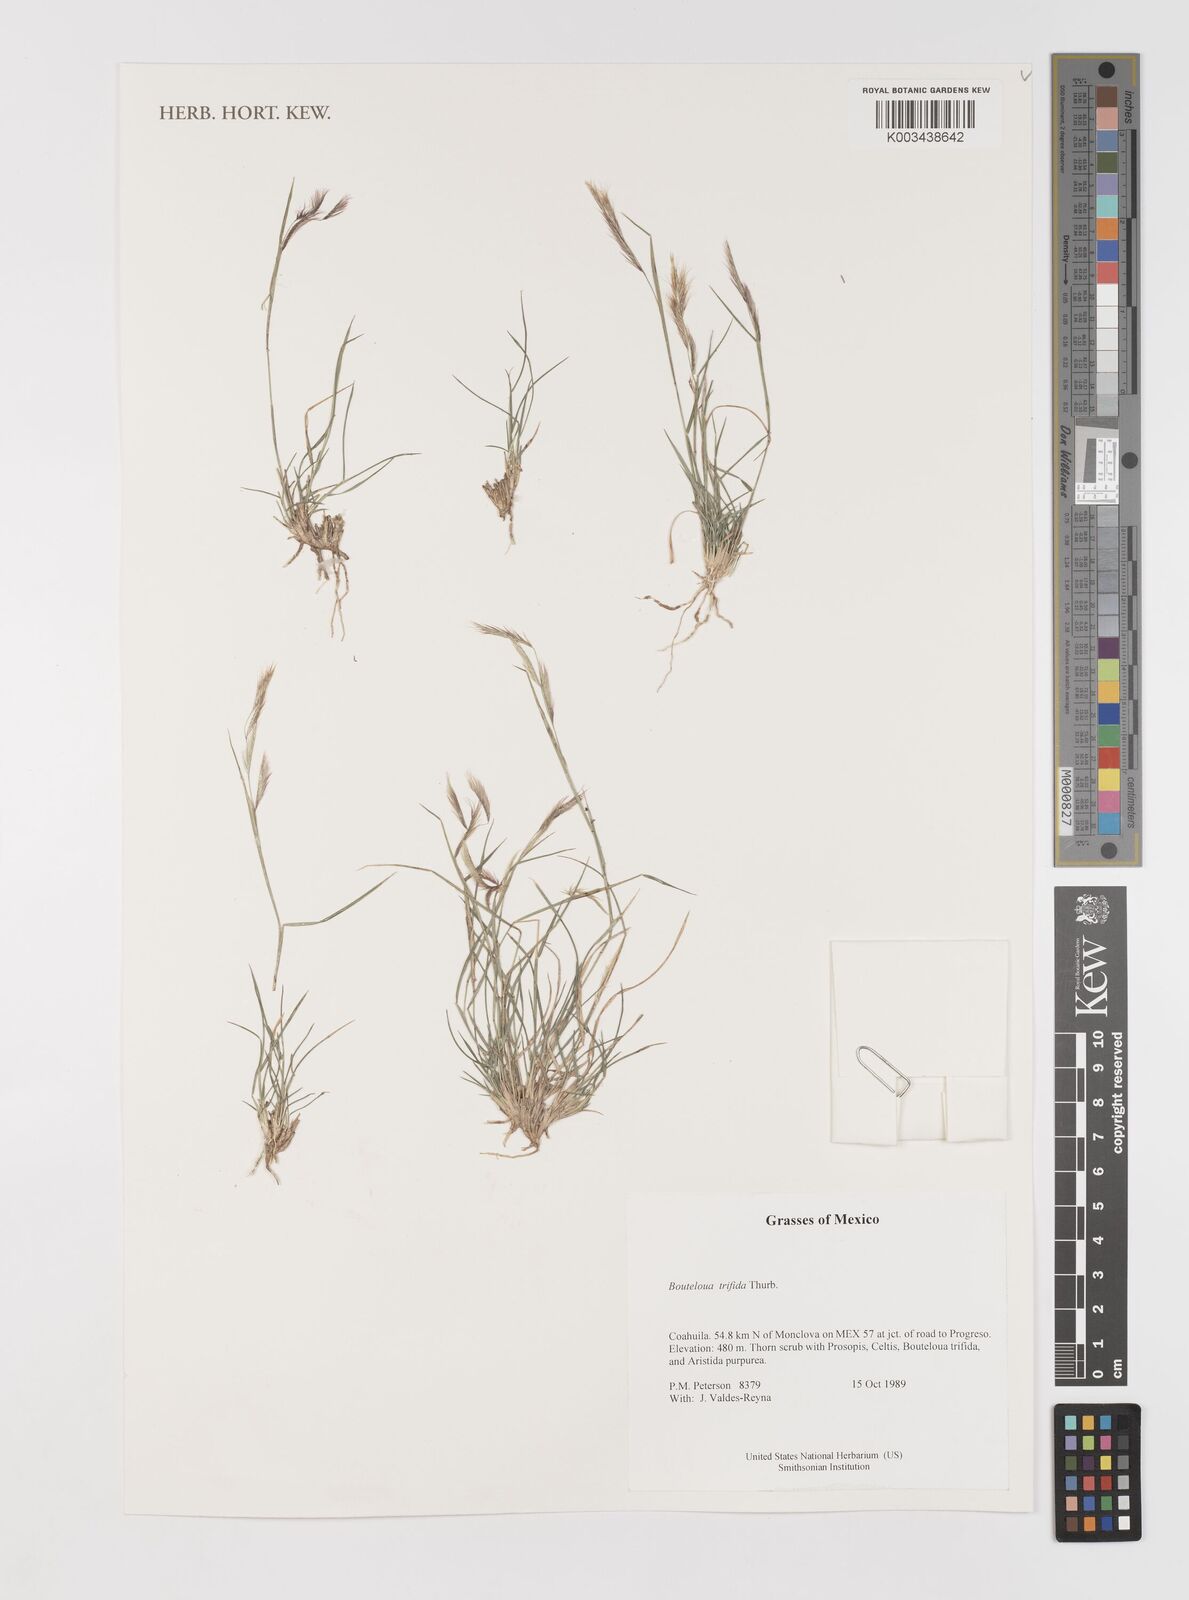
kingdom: Plantae
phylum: Tracheophyta
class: Liliopsida
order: Poales
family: Poaceae
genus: Bouteloua
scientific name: Bouteloua
